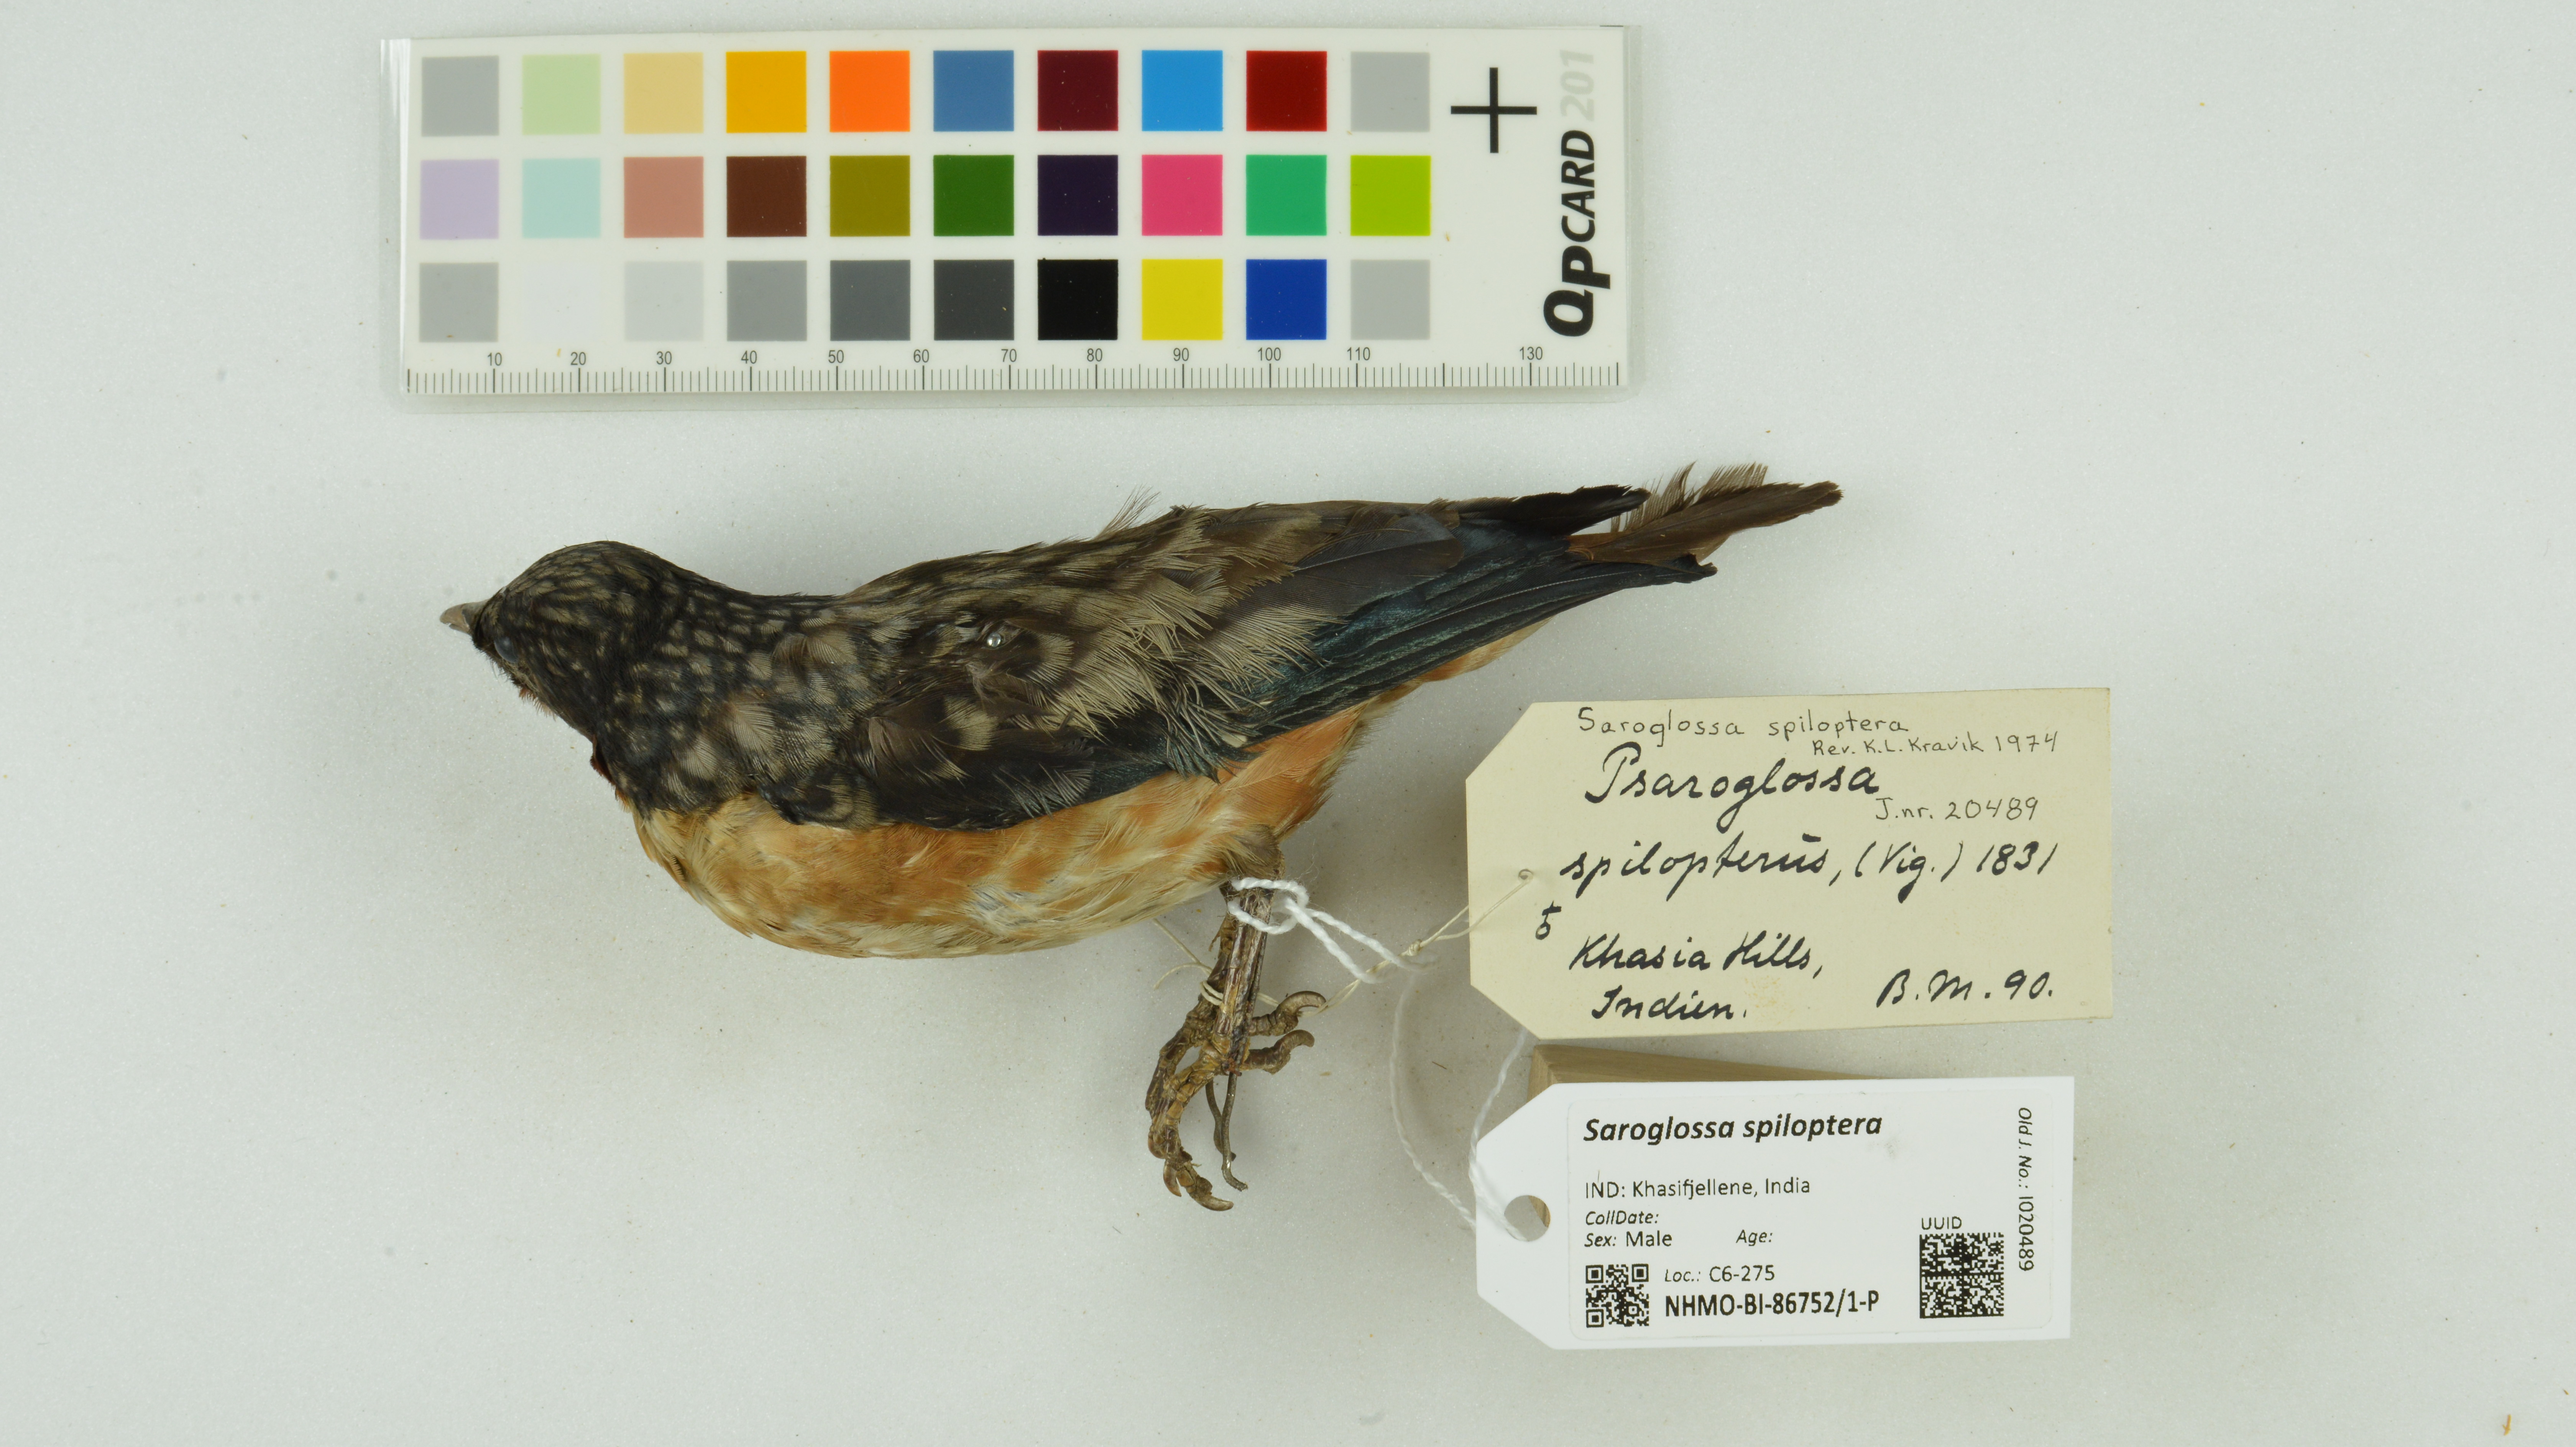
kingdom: Animalia
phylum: Chordata
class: Aves
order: Passeriformes
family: Sturnidae
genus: Saroglossa
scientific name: Saroglossa spiloptera
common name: Spot-winged starling
